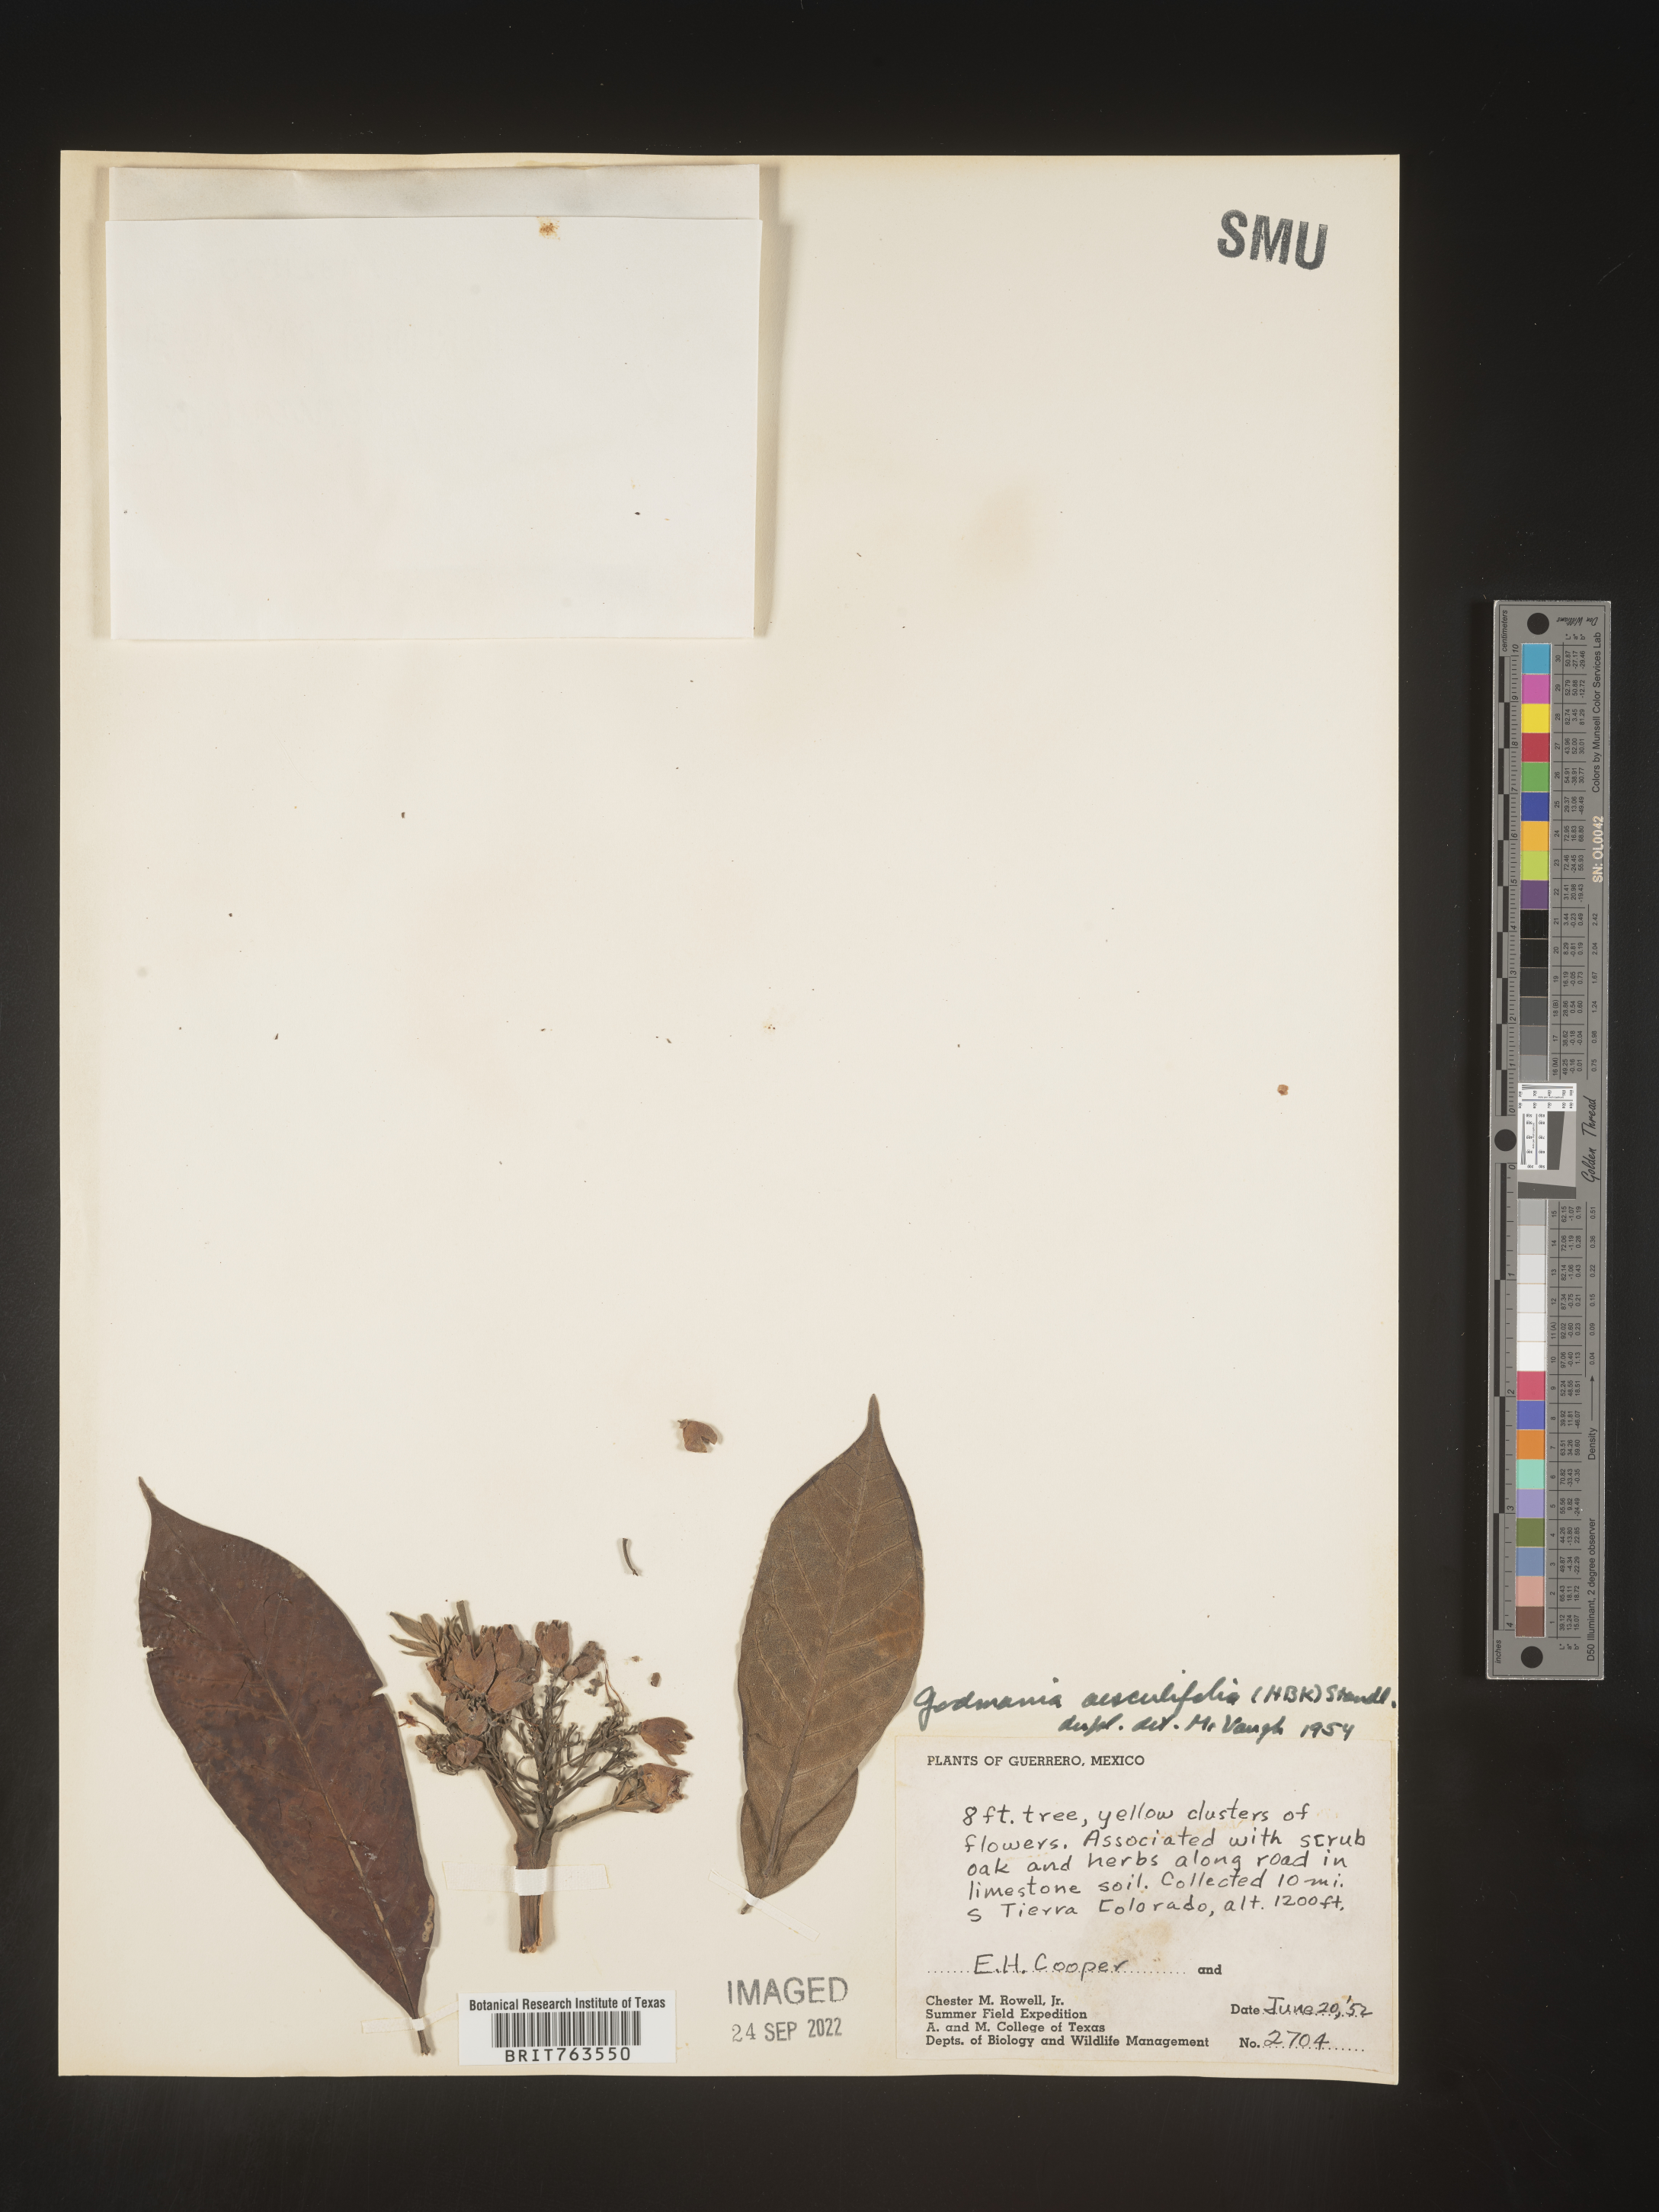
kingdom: Plantae
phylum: Tracheophyta
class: Magnoliopsida
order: Lamiales
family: Bignoniaceae
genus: Godmania
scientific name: Godmania
